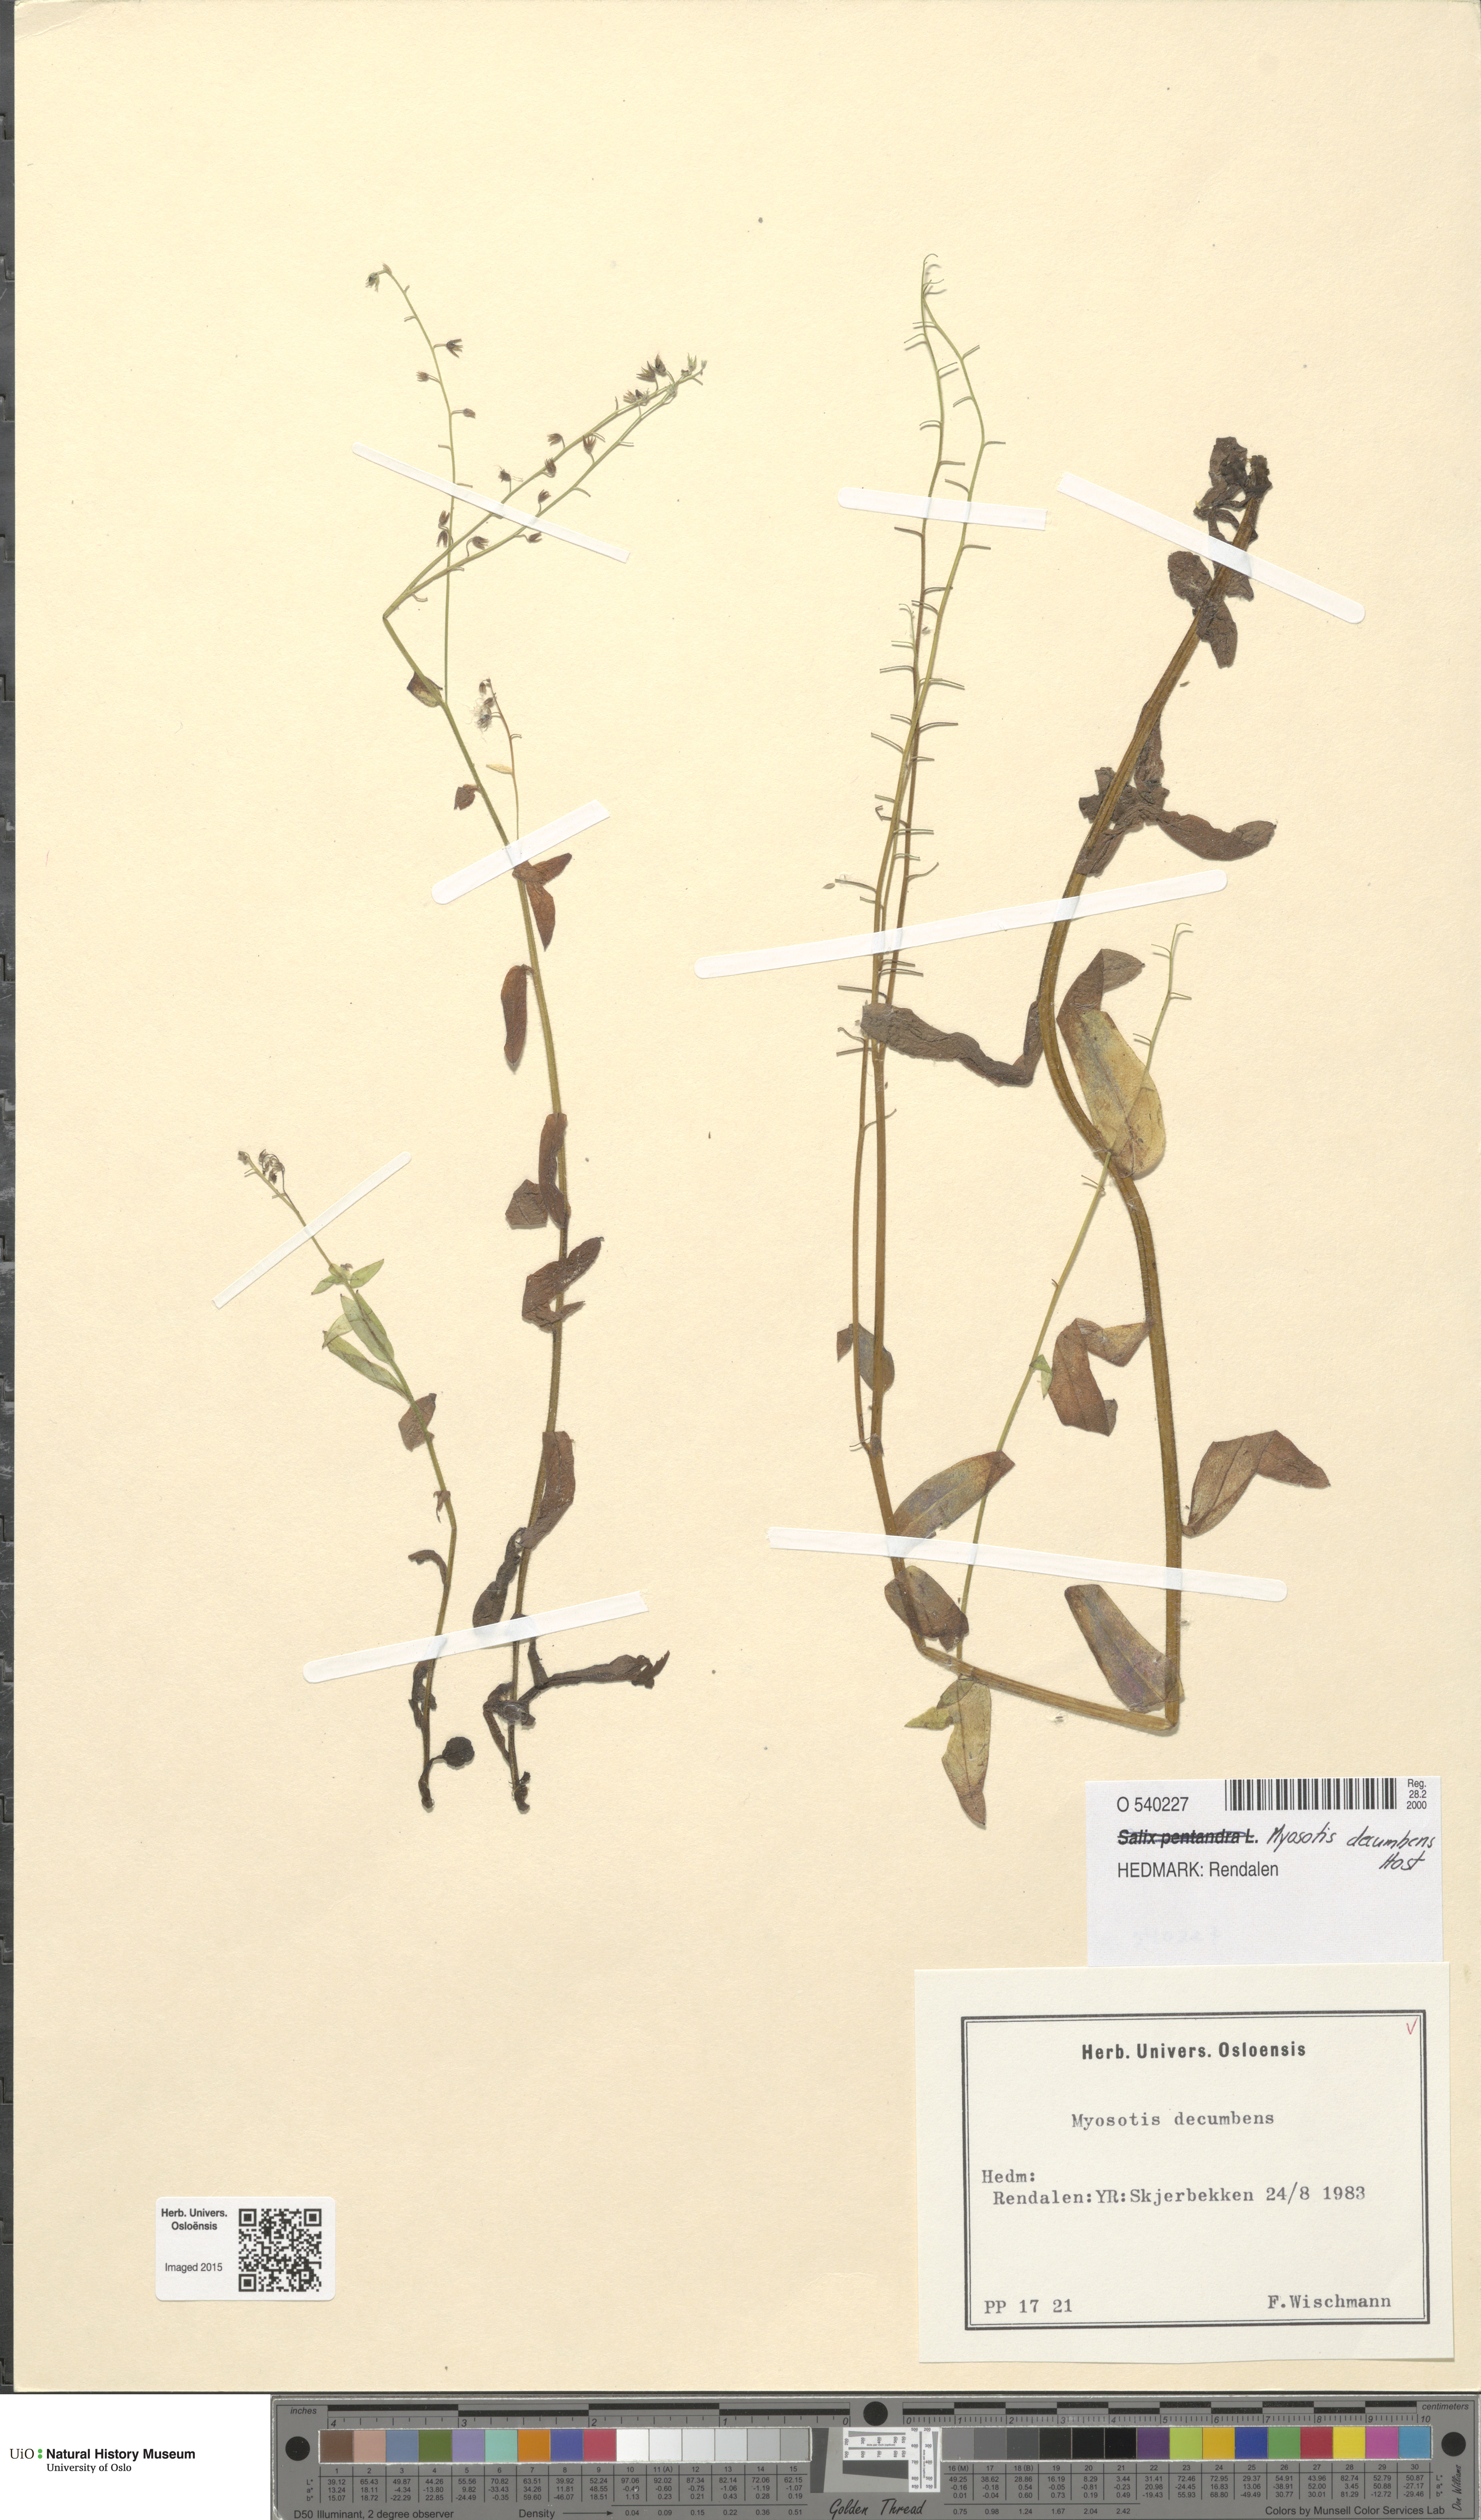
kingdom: Plantae
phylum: Tracheophyta
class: Magnoliopsida
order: Boraginales
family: Boraginaceae
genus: Myosotis
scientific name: Myosotis decumbens
